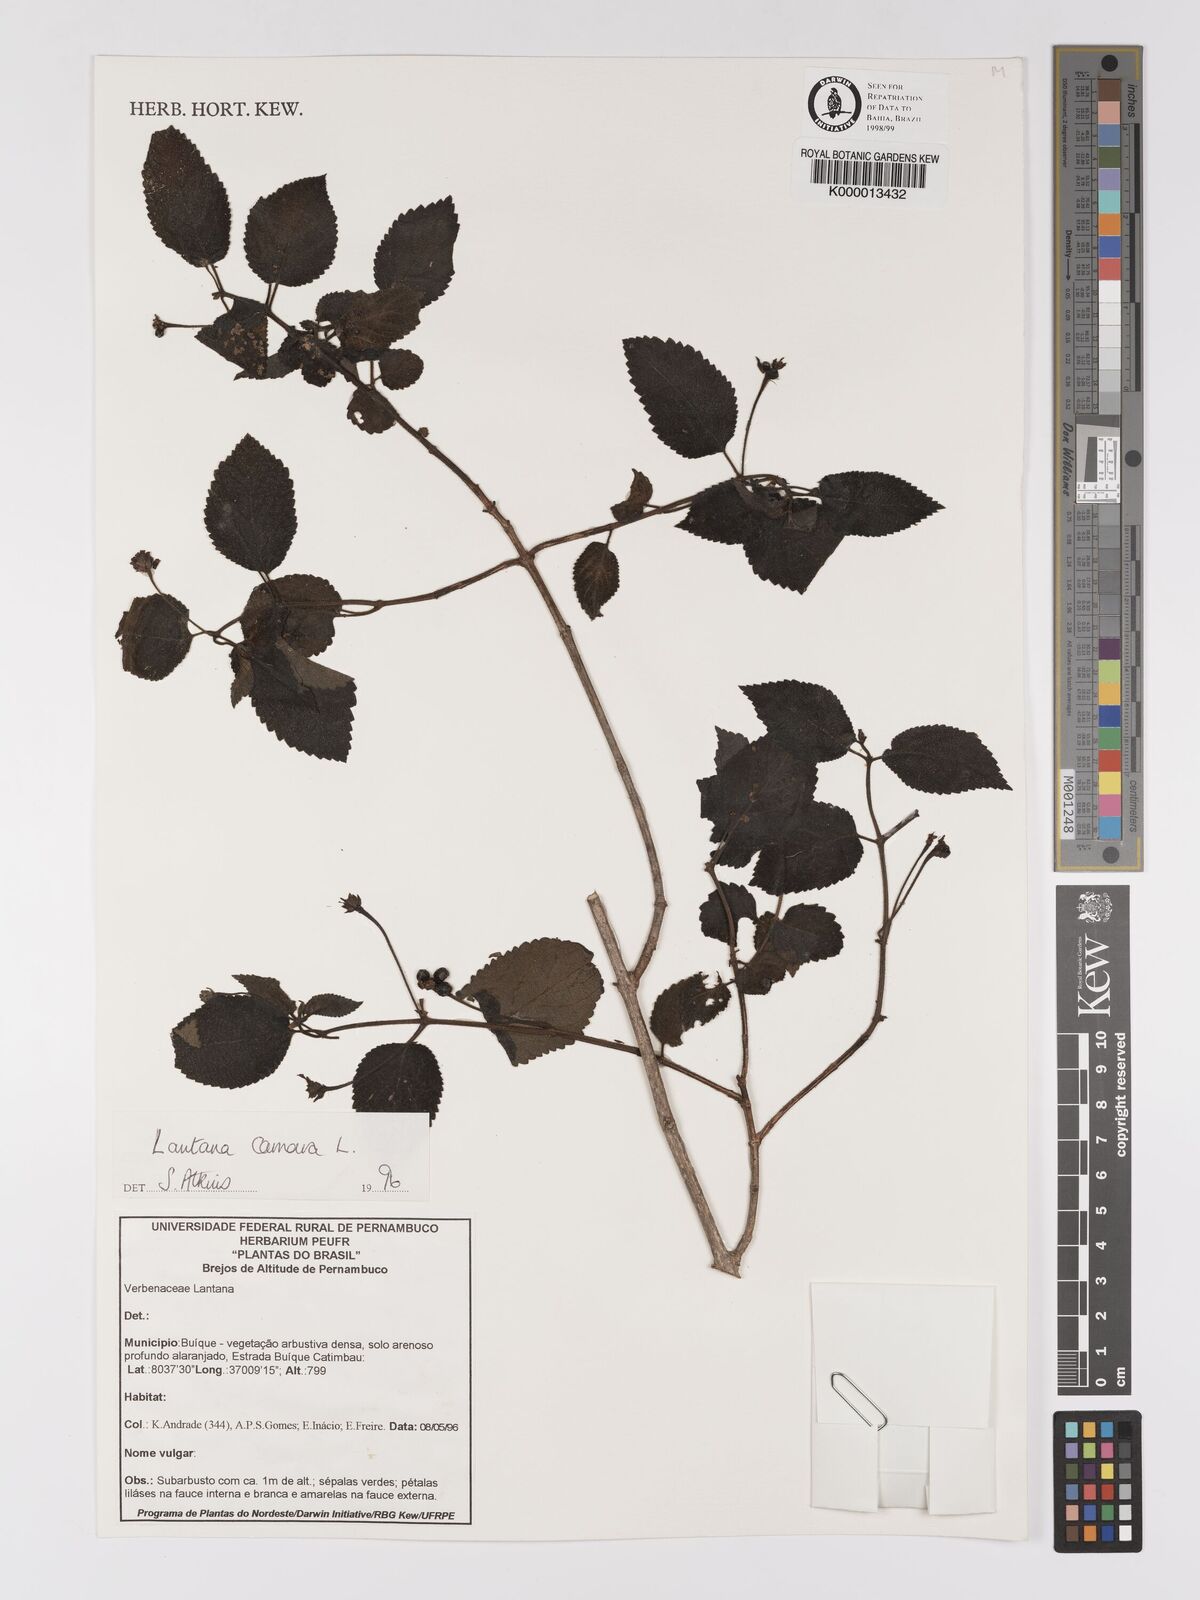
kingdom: Plantae
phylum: Tracheophyta
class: Magnoliopsida
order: Lamiales
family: Verbenaceae
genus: Lantana
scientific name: Lantana camara
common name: Lantana
